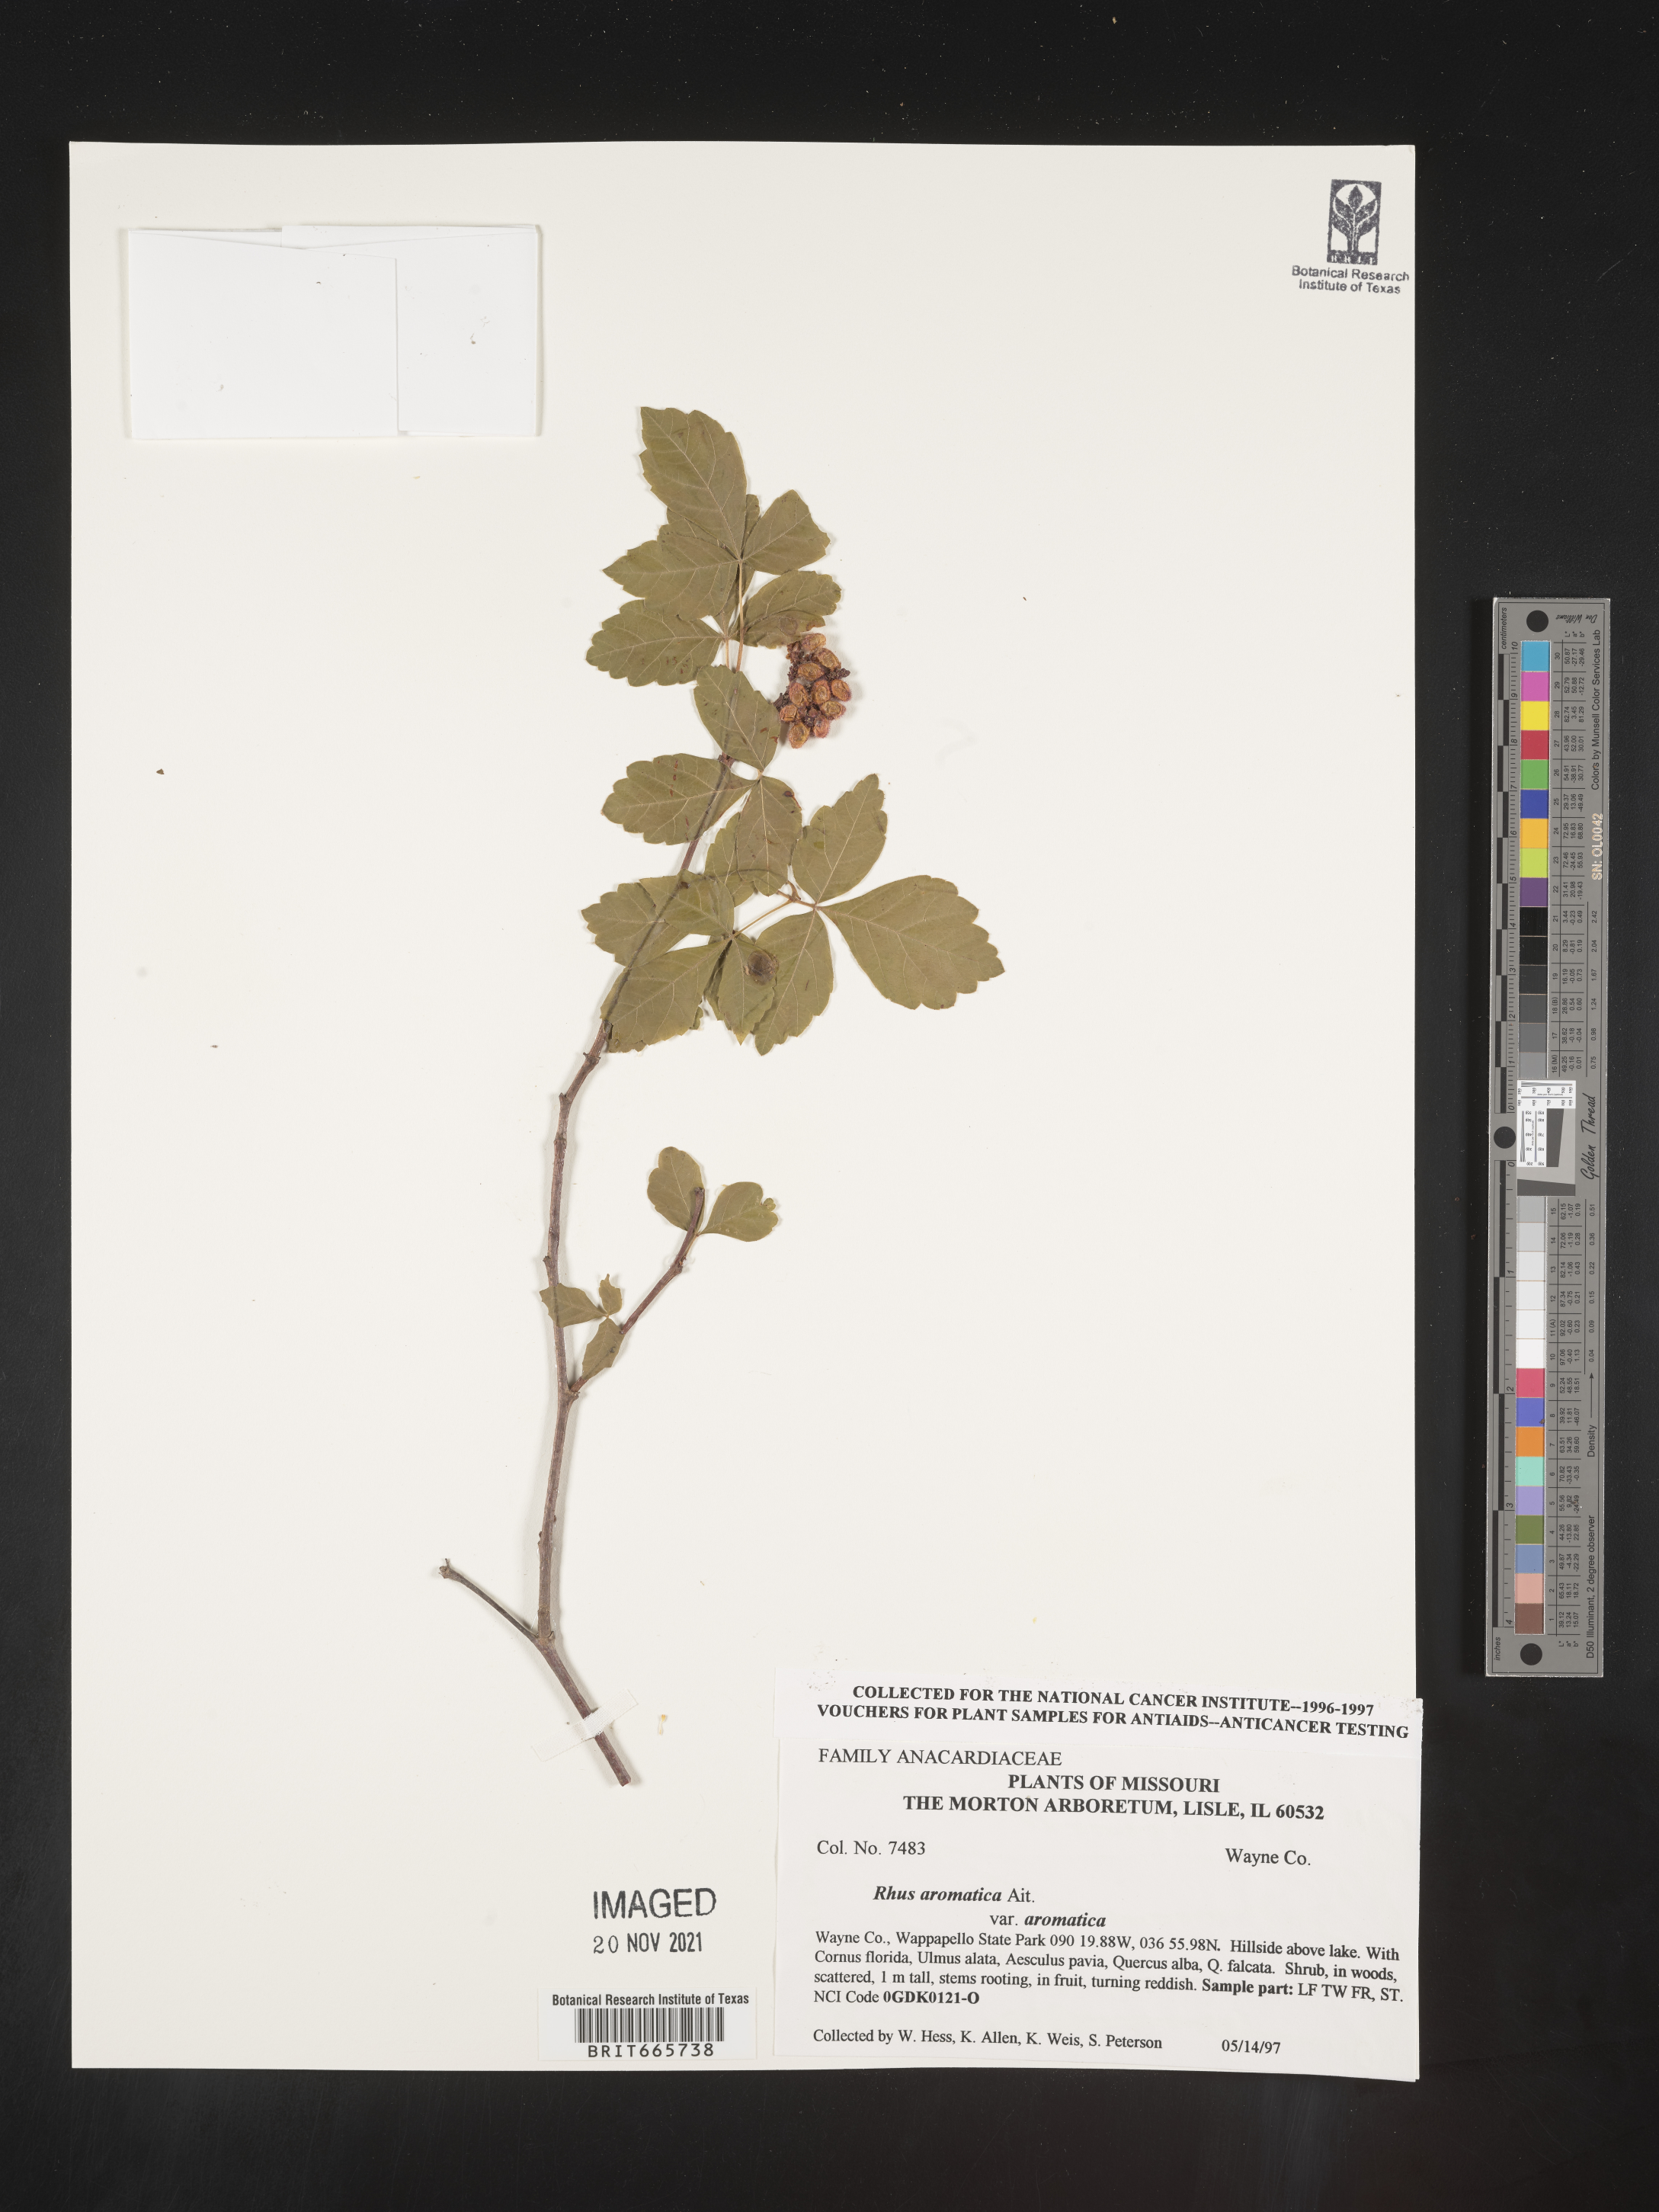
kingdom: Plantae
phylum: Tracheophyta
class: Magnoliopsida
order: Sapindales
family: Anacardiaceae
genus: Rhus
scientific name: Rhus aromatica
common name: Aromatic sumac
